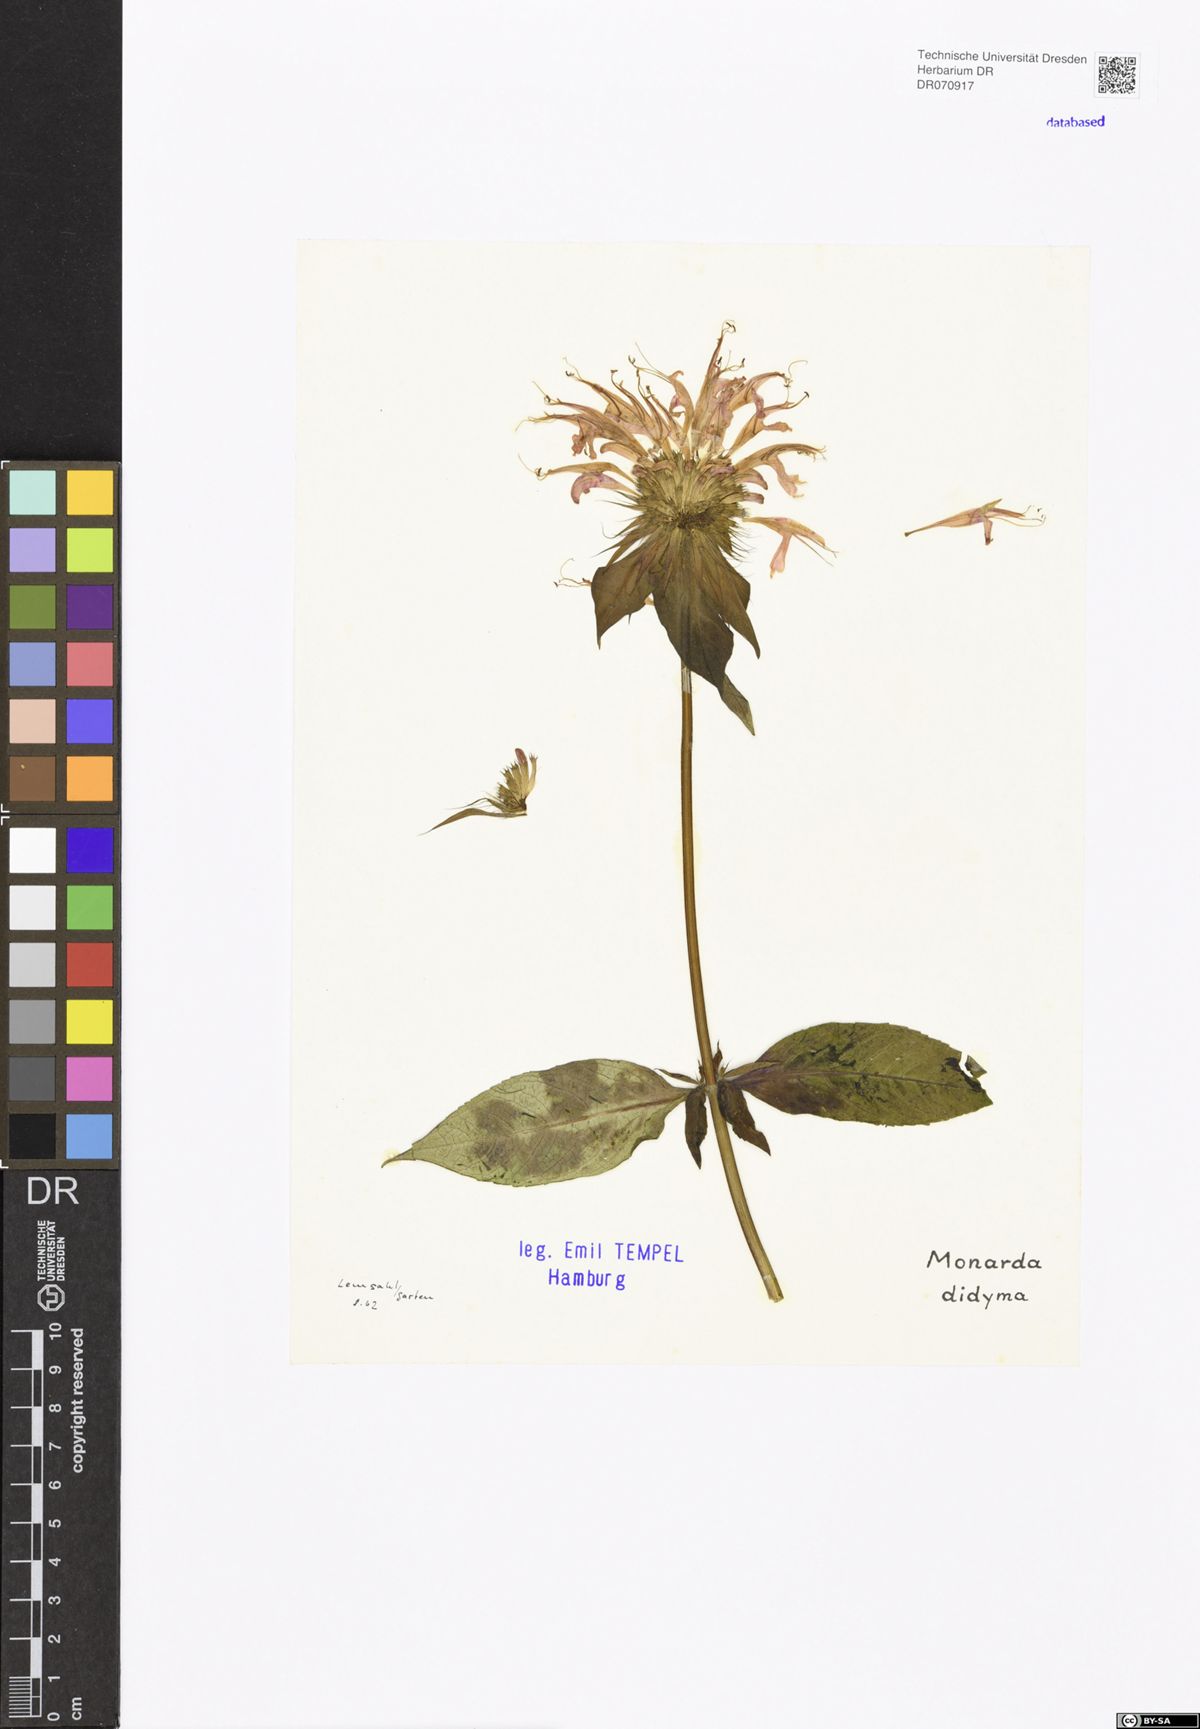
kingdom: Plantae
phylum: Tracheophyta
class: Magnoliopsida
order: Lamiales
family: Lamiaceae
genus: Monarda
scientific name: Monarda didyma
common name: Beebalm
